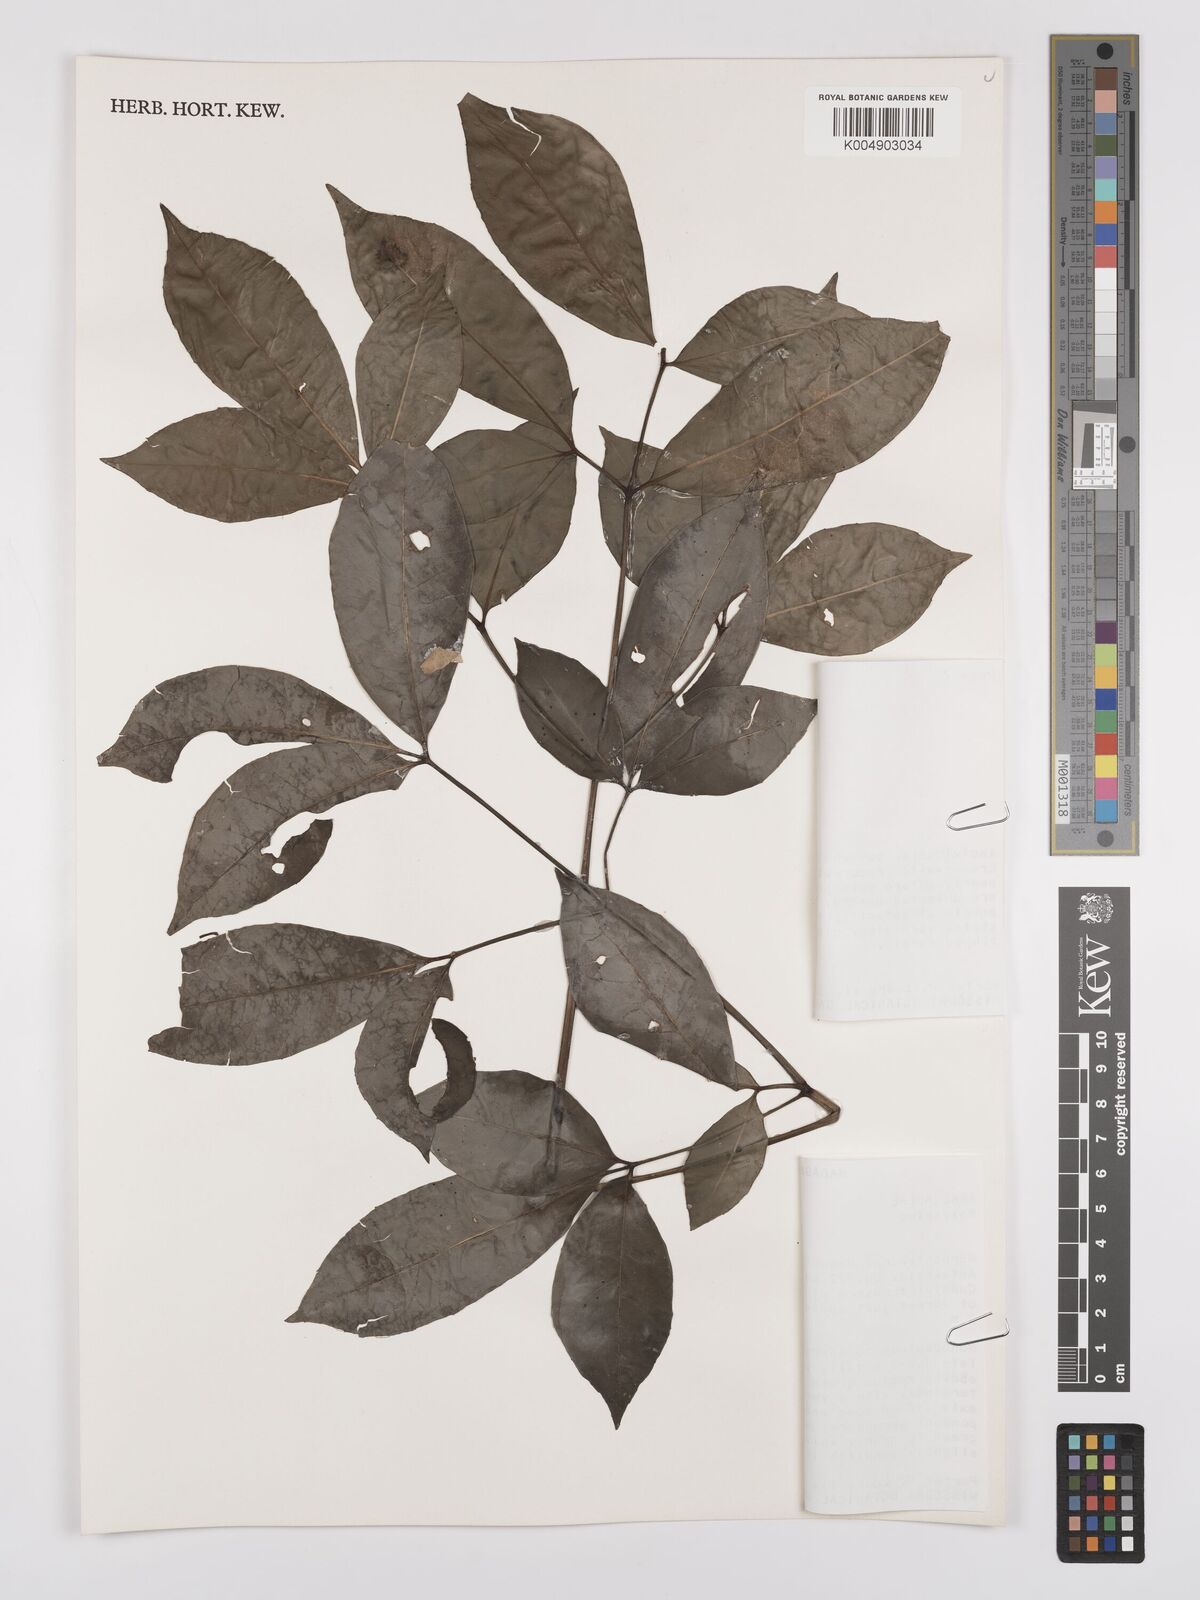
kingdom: Plantae
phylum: Tracheophyta
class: Magnoliopsida
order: Apiales
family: Araliaceae
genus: Polyscias
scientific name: Polyscias
